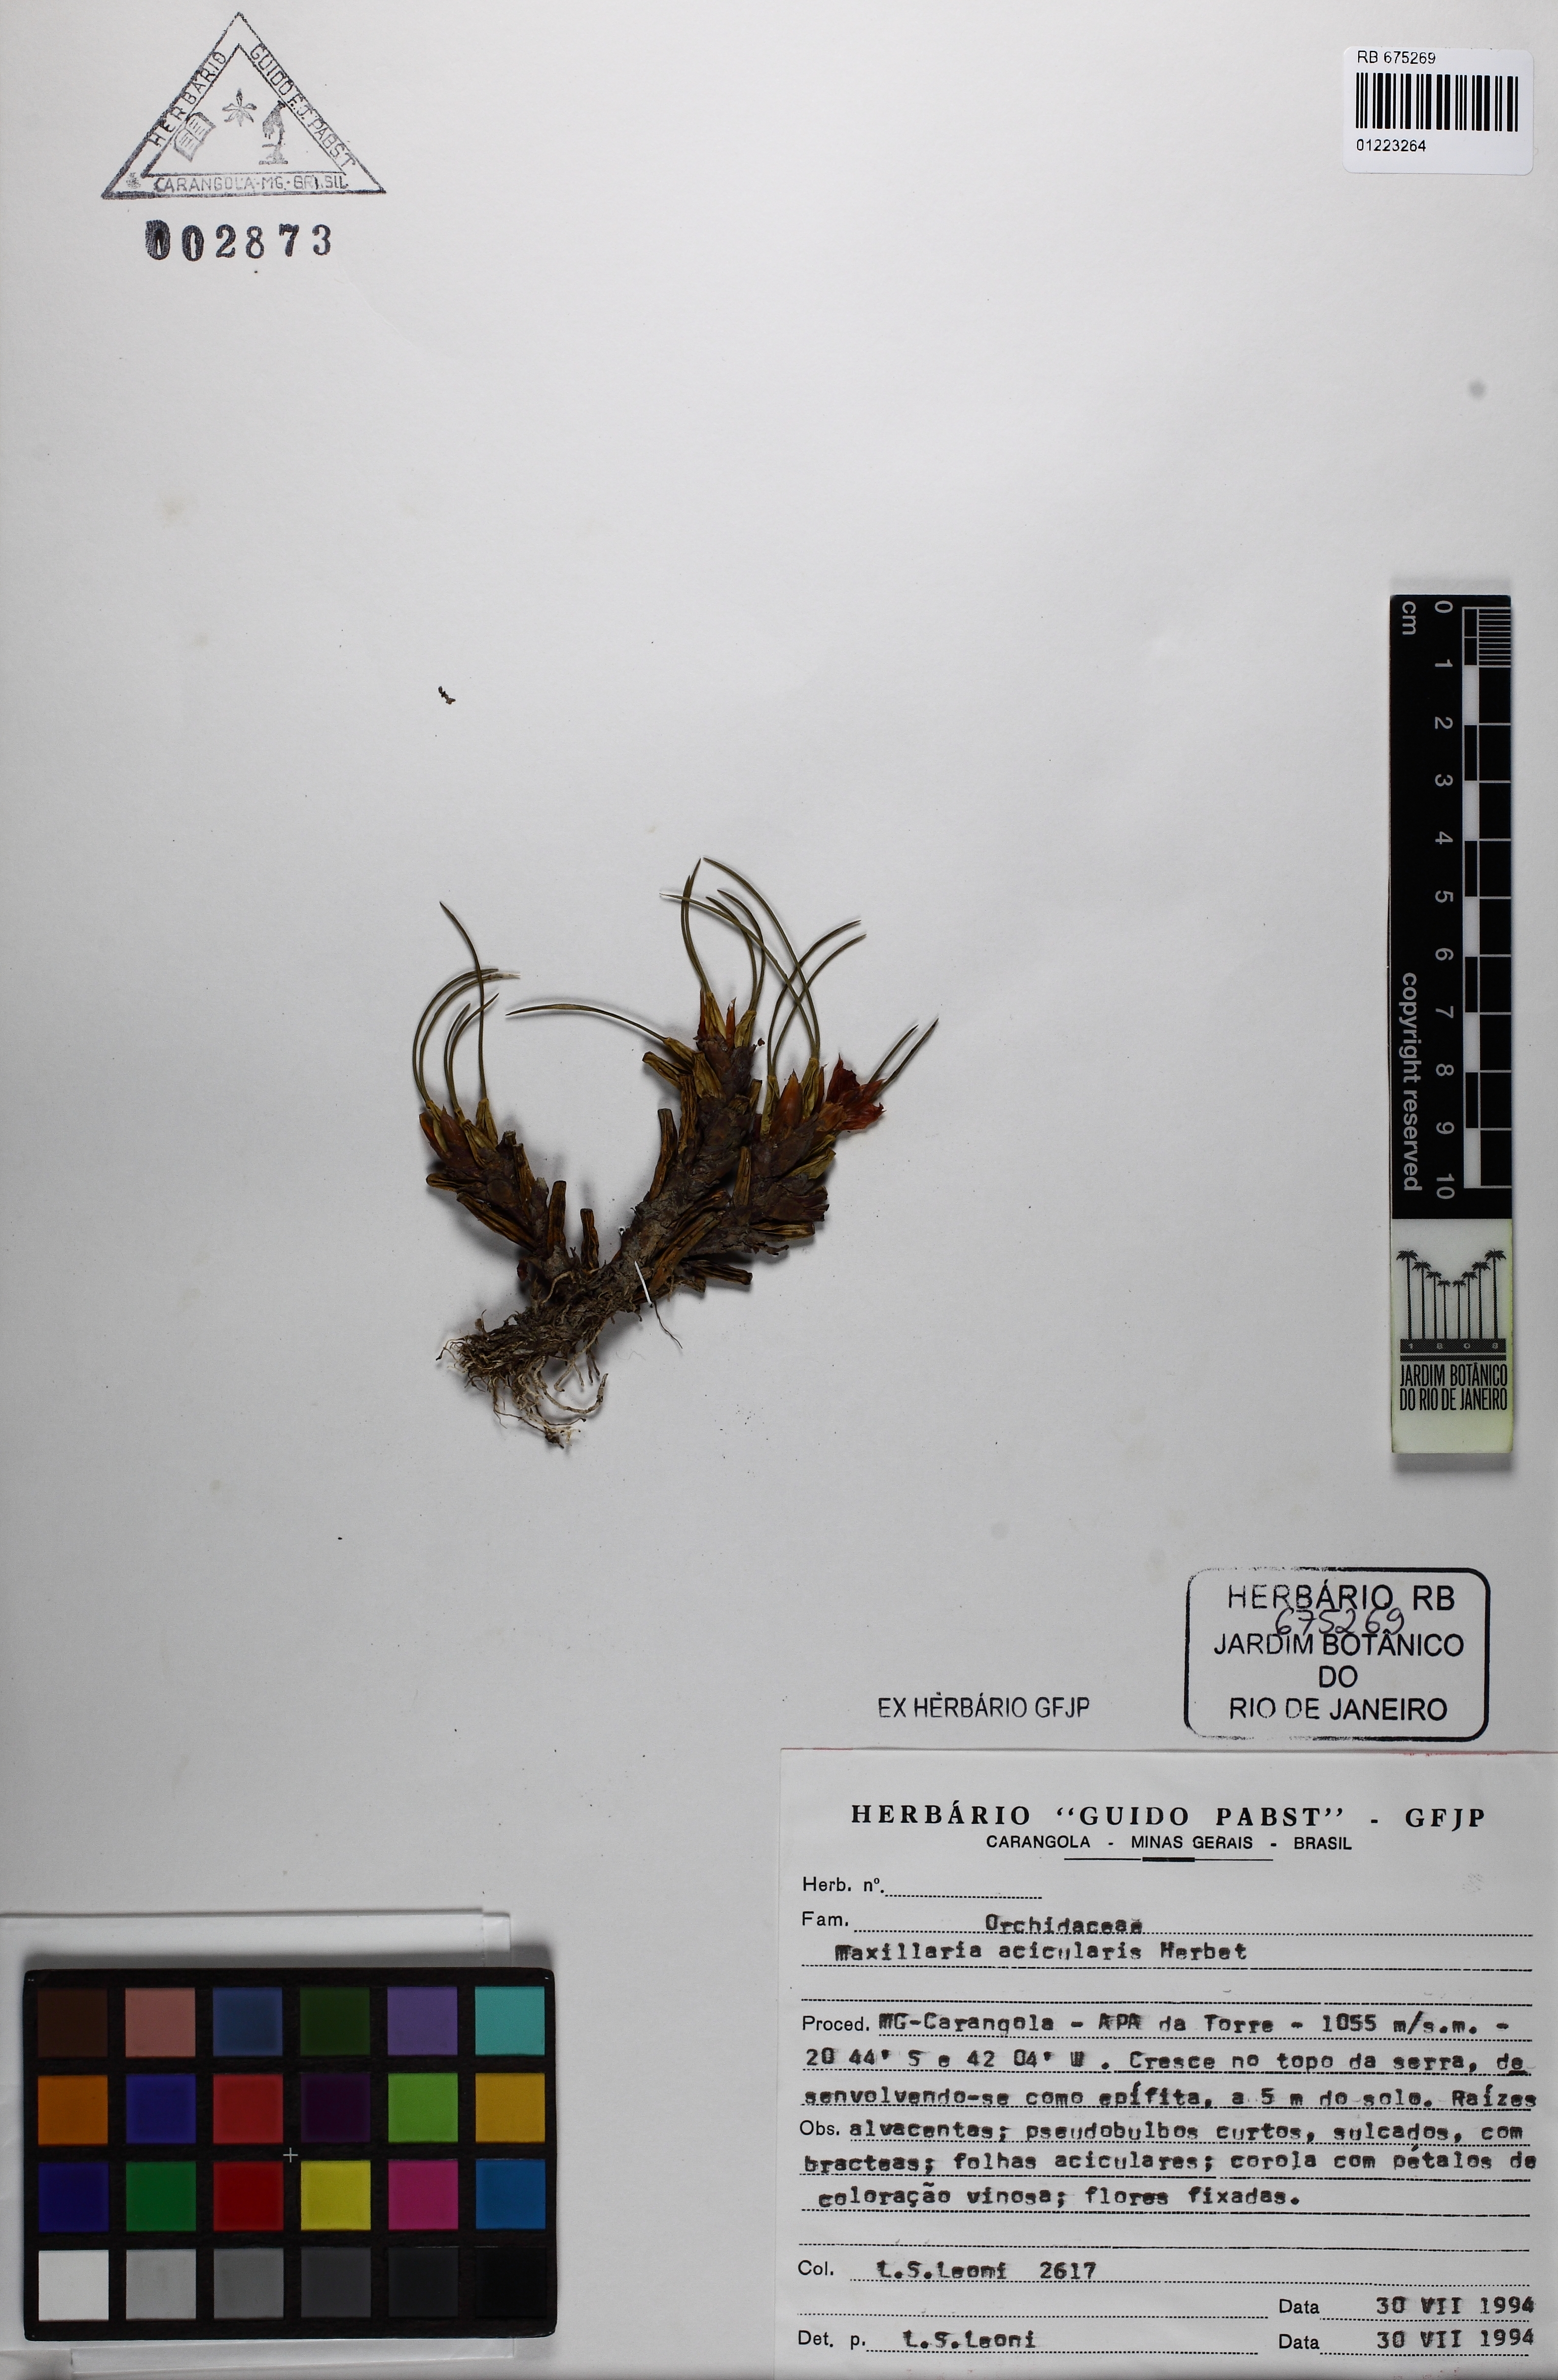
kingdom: Plantae
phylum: Tracheophyta
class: Liliopsida
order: Asparagales
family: Orchidaceae
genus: Maxillaria
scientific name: Maxillaria subulata
